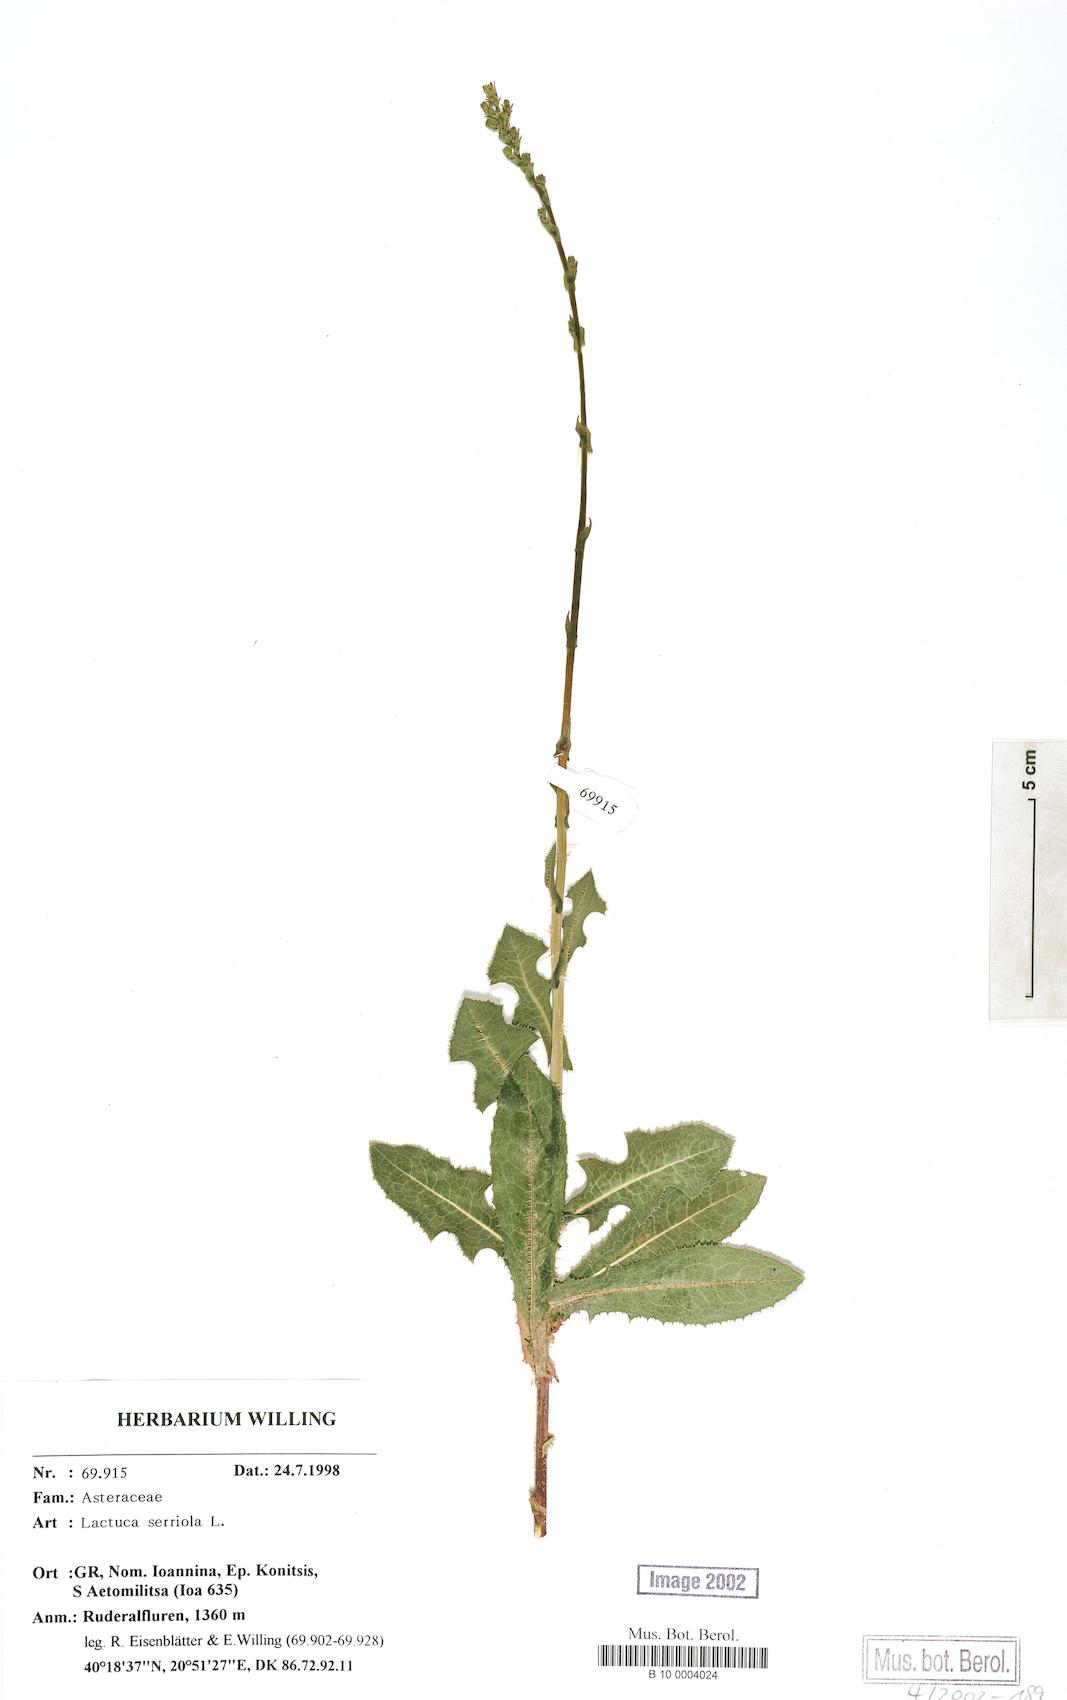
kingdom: Plantae
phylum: Tracheophyta
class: Magnoliopsida
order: Asterales
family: Asteraceae
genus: Lactuca
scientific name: Lactuca serriola
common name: Prickly lettuce
